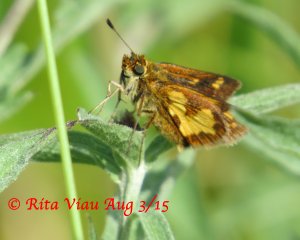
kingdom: Animalia
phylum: Arthropoda
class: Insecta
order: Lepidoptera
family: Hesperiidae
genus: Polites
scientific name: Polites coras
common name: Peck's Skipper
